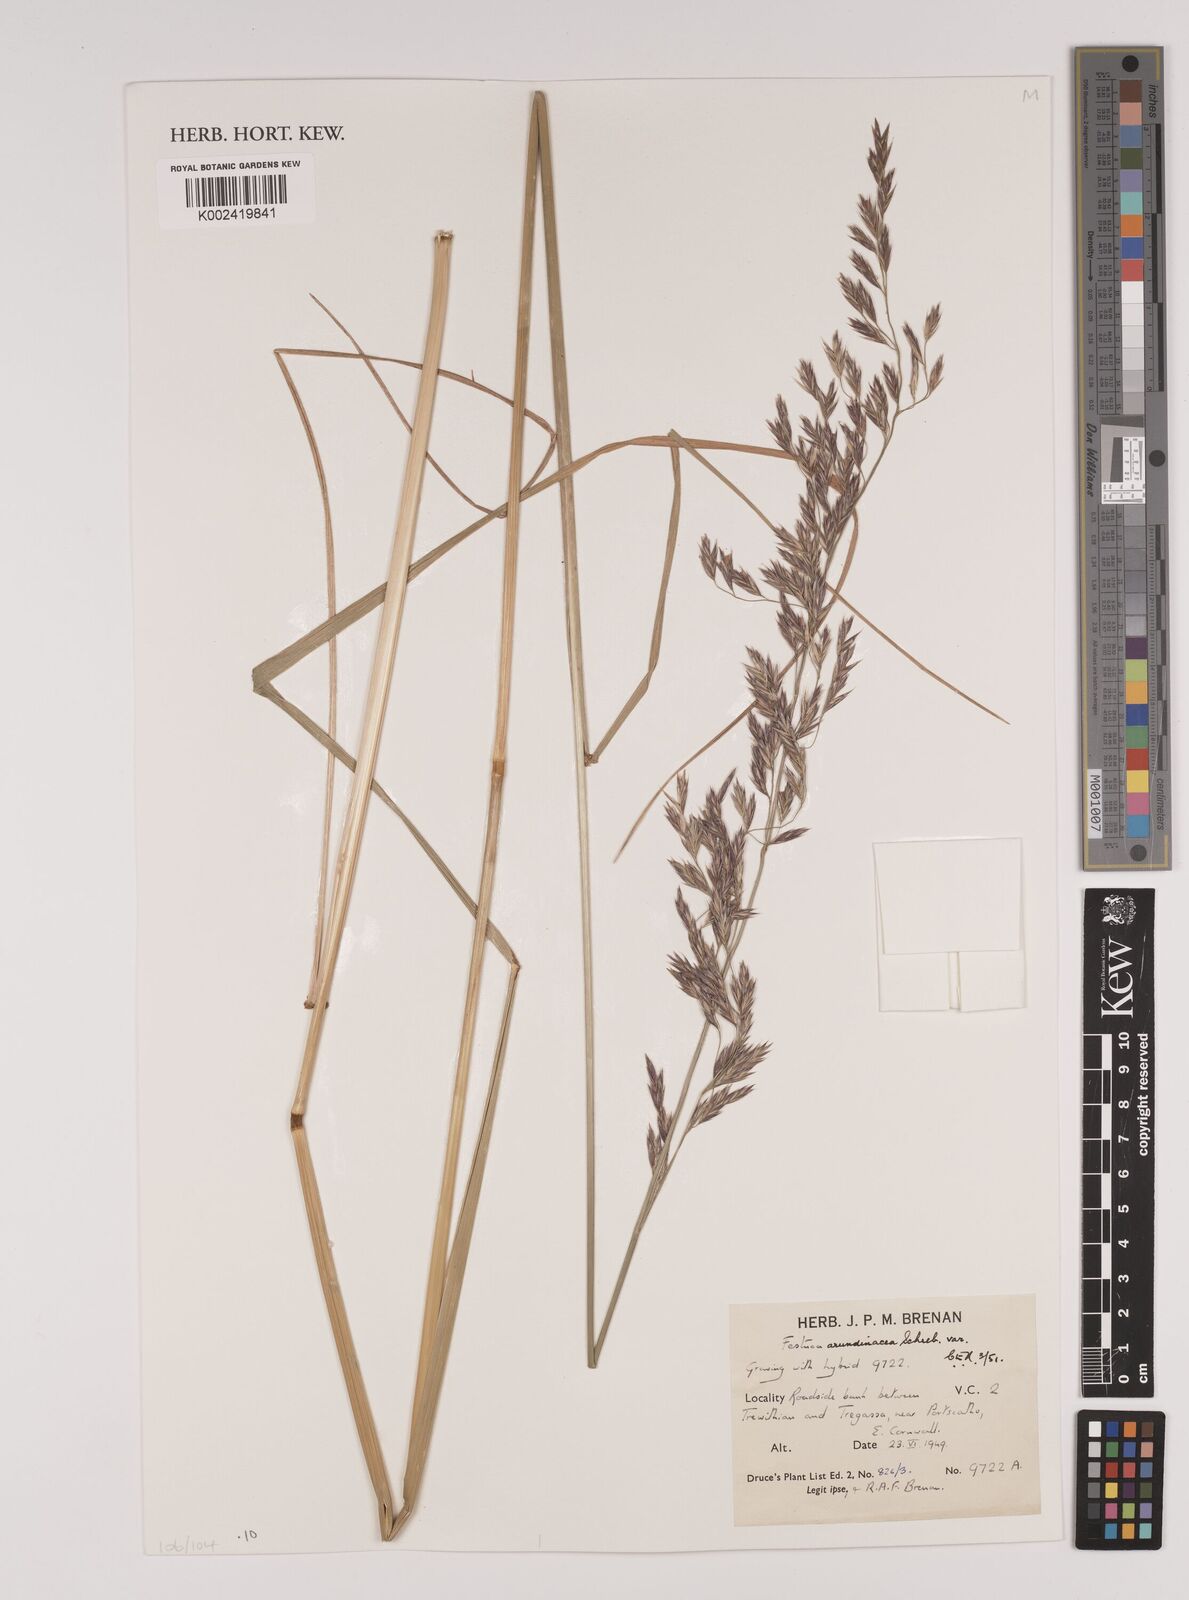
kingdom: Plantae
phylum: Tracheophyta
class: Liliopsida
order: Poales
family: Poaceae
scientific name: Poaceae
